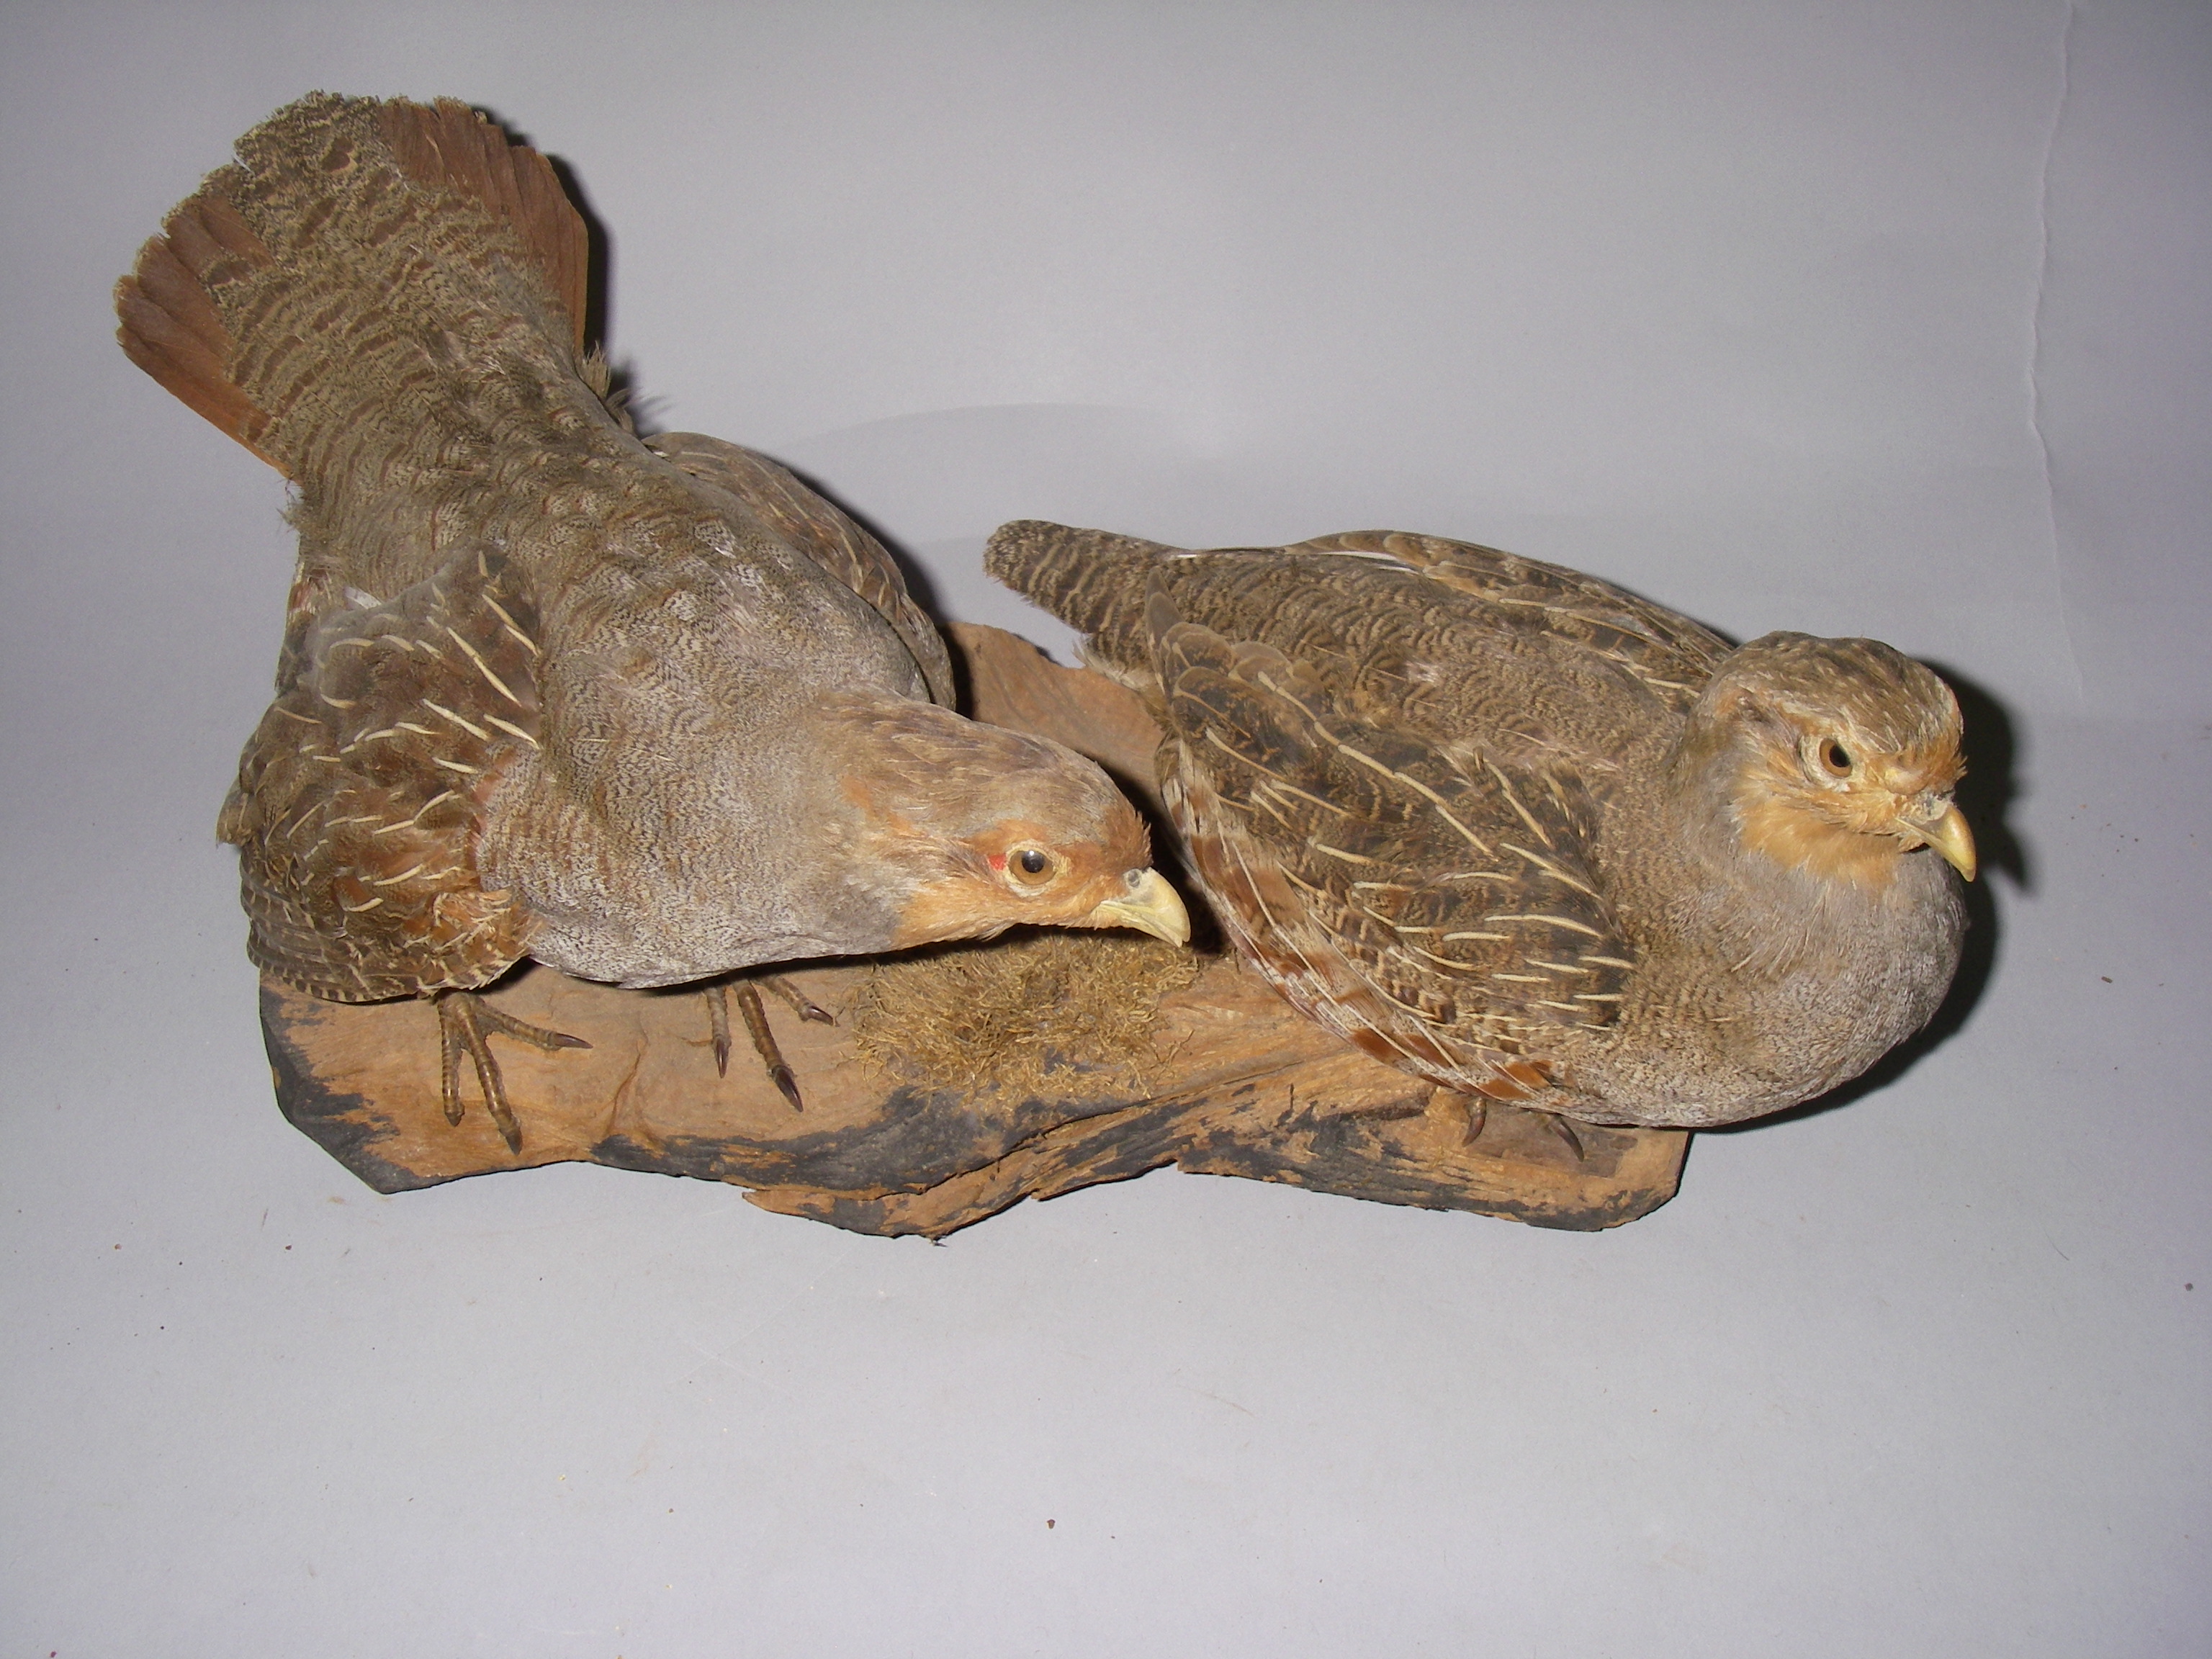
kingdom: Animalia
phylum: Chordata
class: Aves
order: Galliformes
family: Phasianidae
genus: Perdix
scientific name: Perdix perdix
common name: Grey partridge
